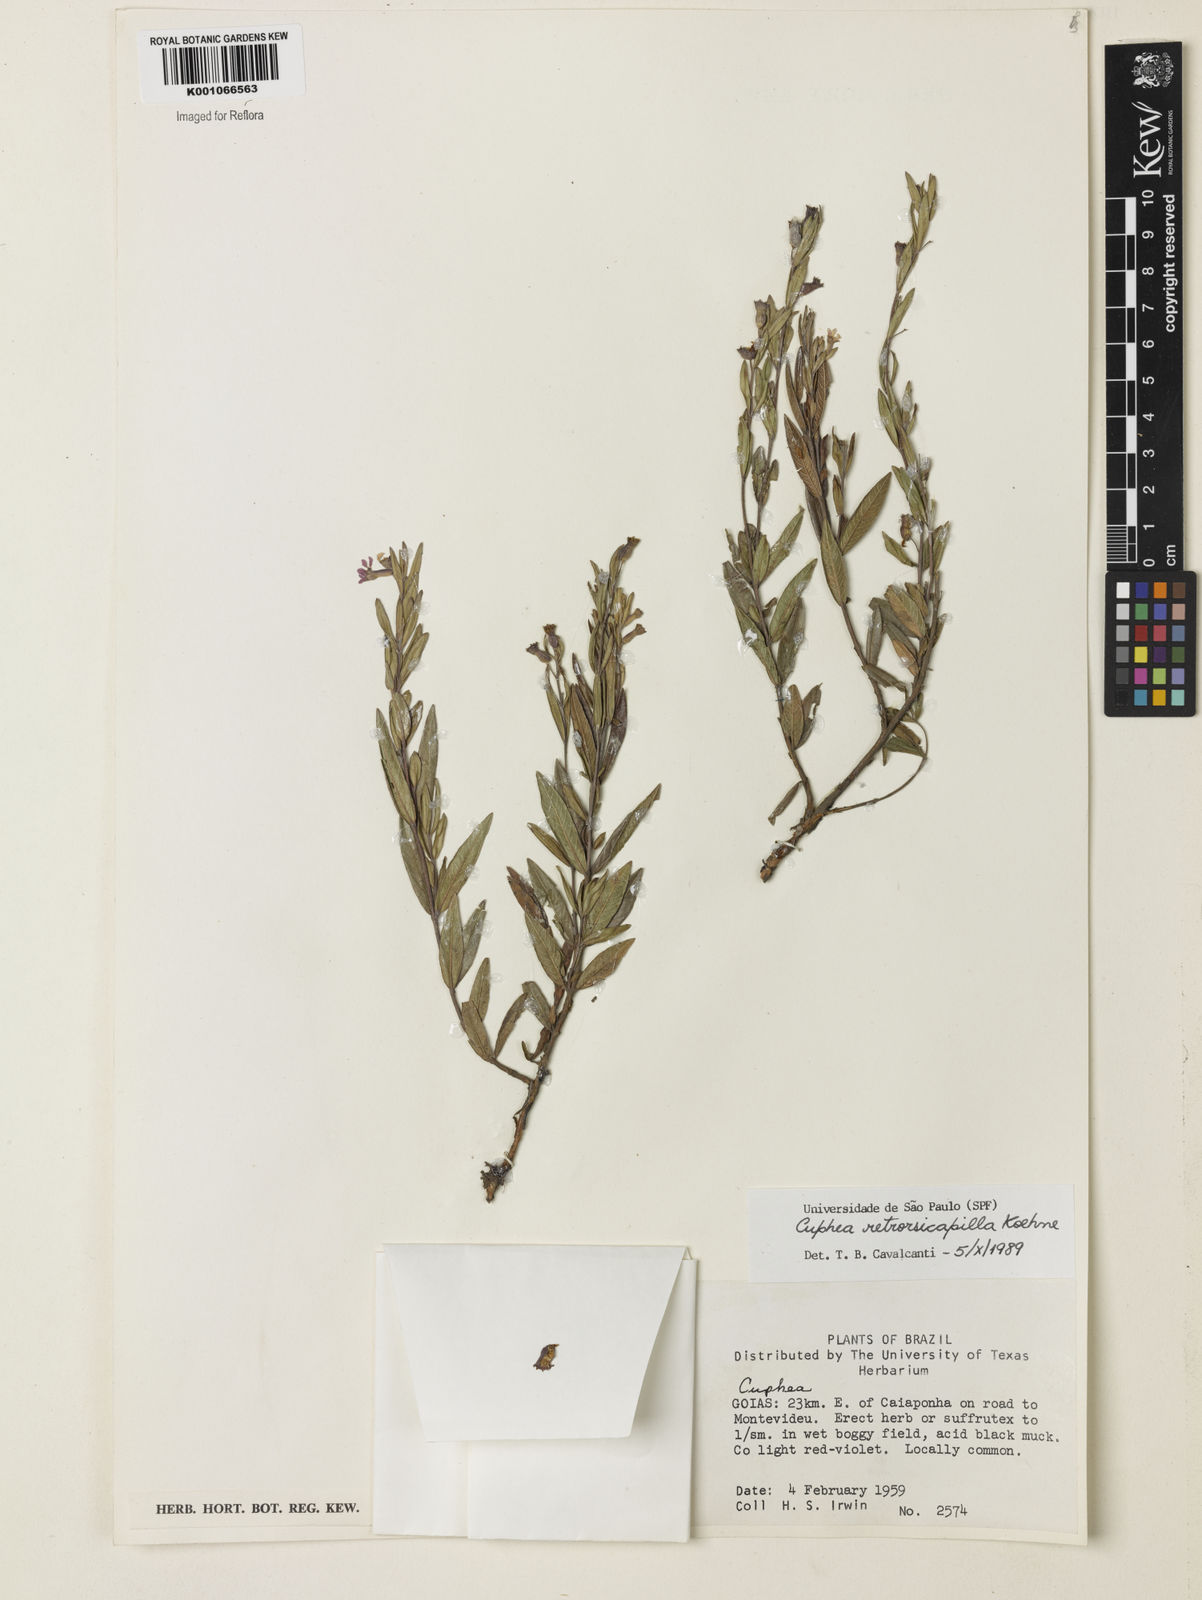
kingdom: Plantae
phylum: Tracheophyta
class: Magnoliopsida
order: Myrtales
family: Lythraceae
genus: Cuphea
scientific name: Cuphea retrorsicapilla
